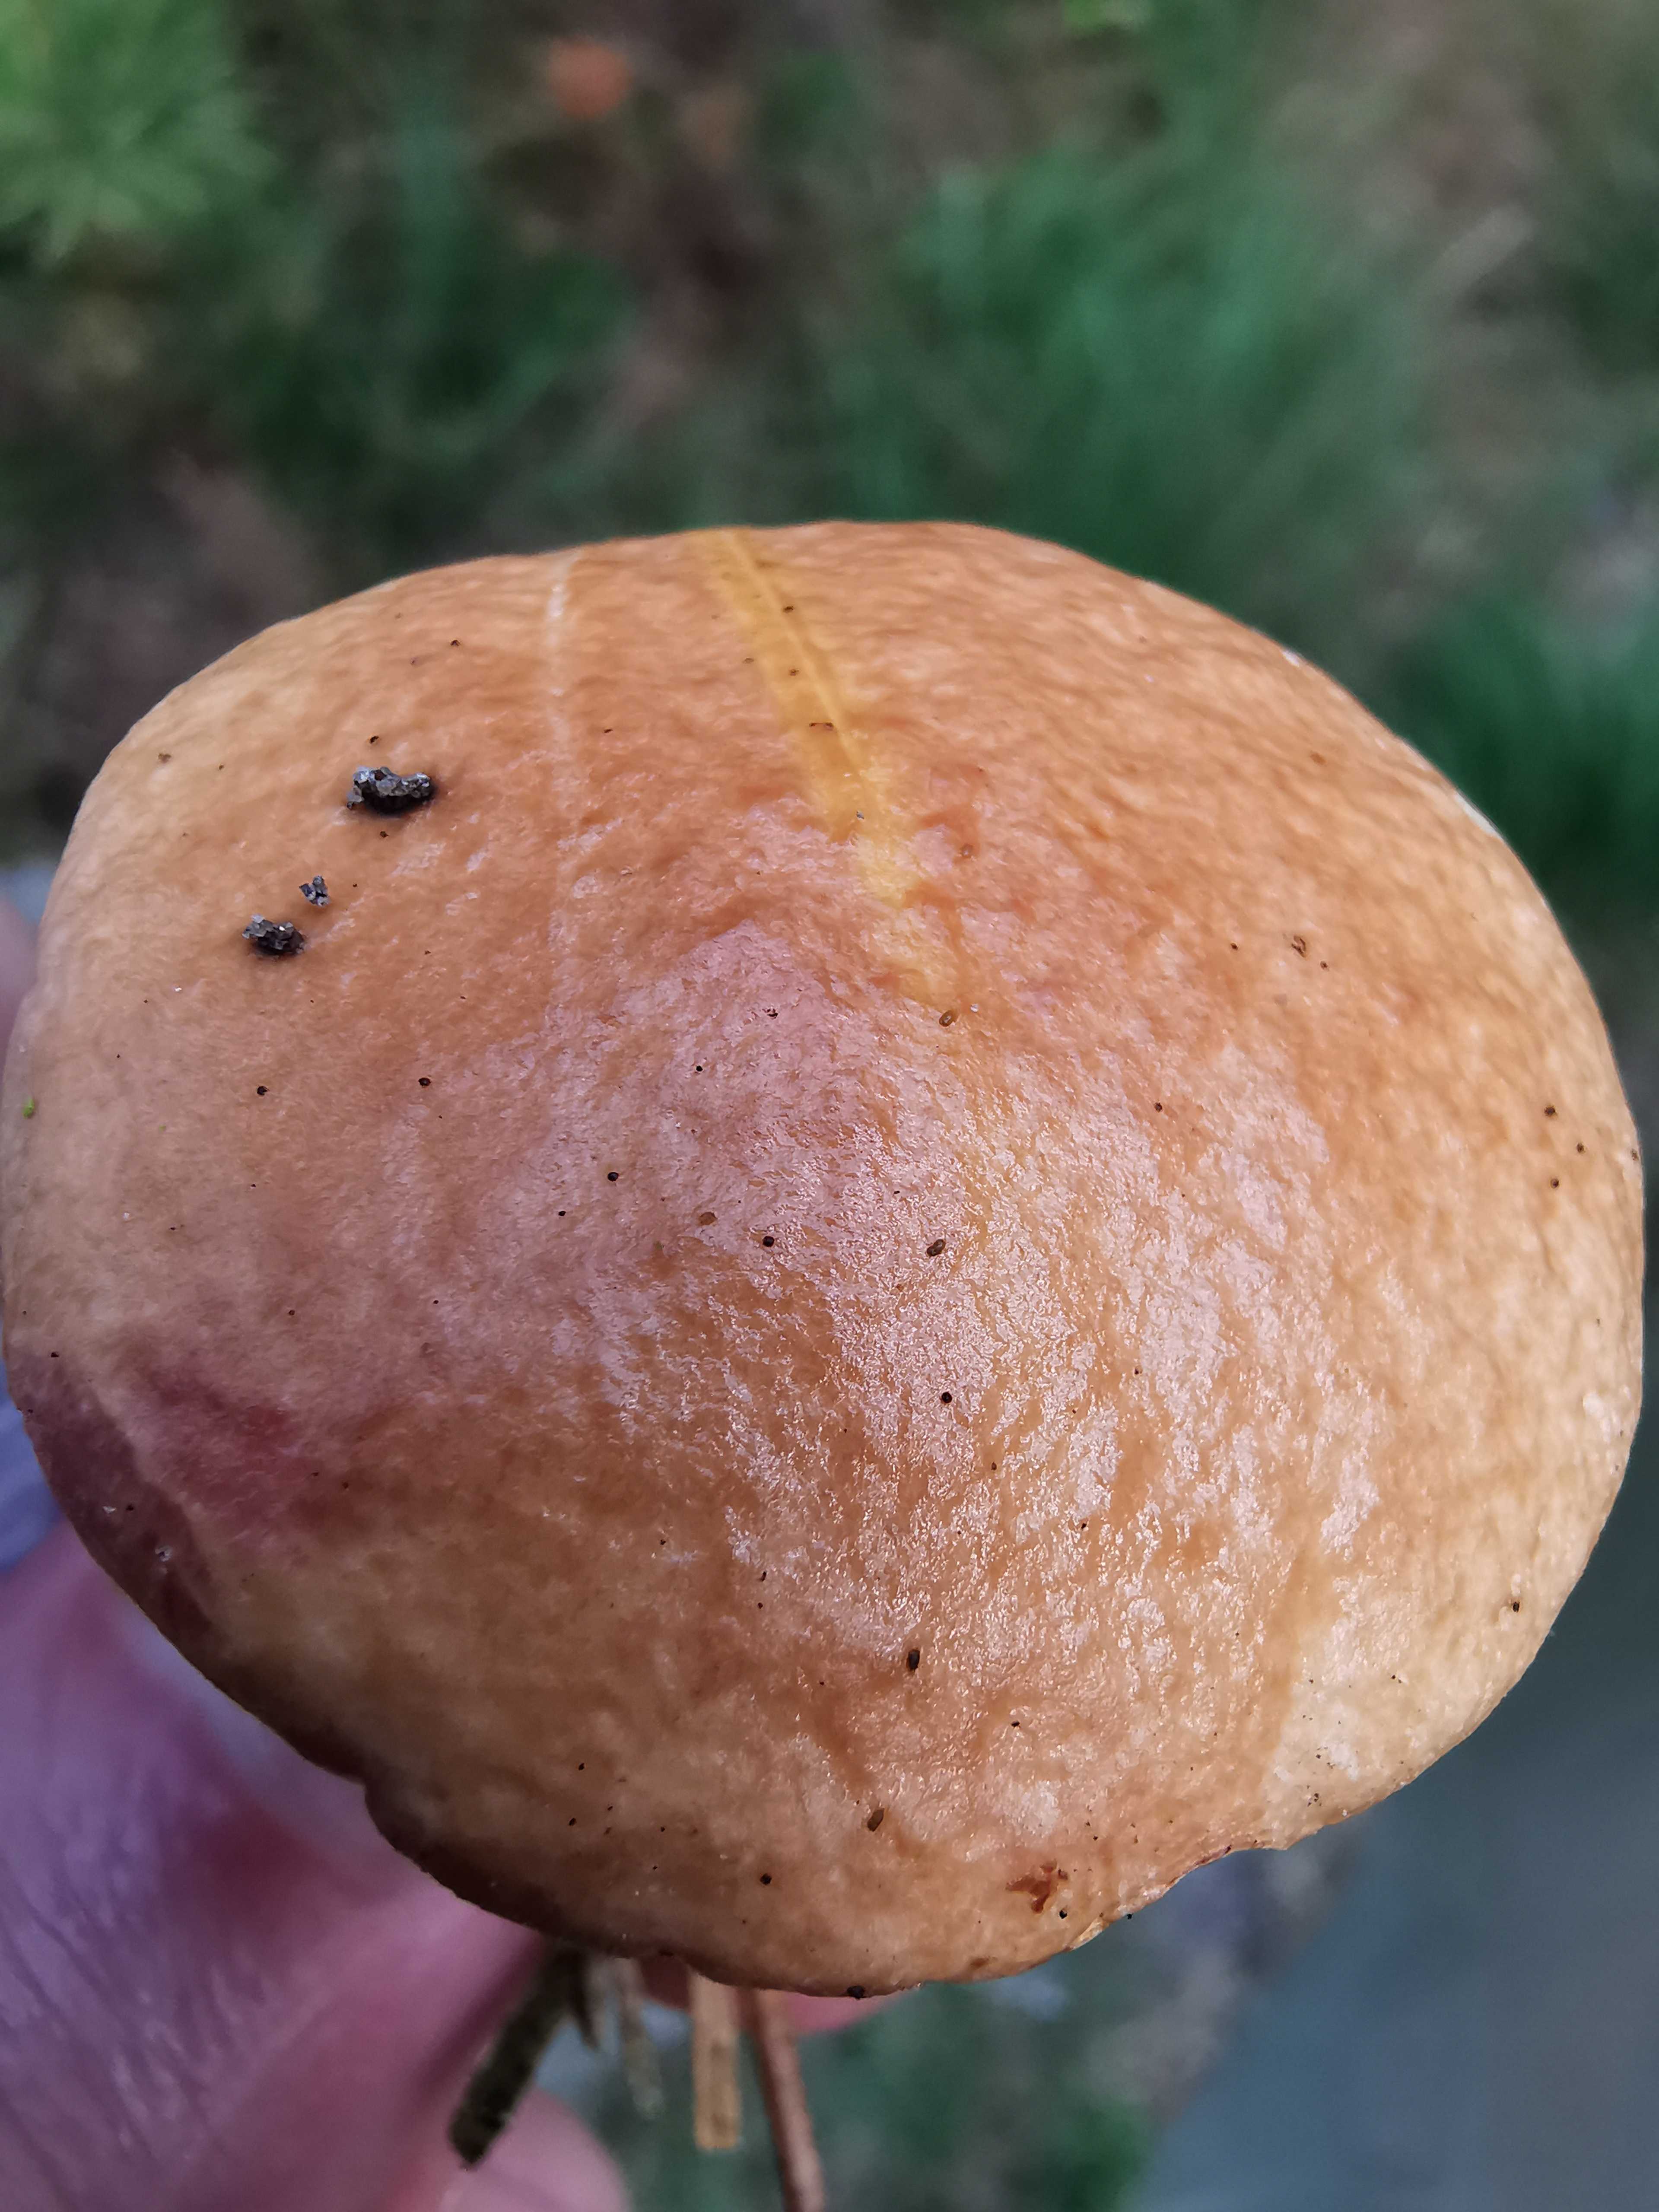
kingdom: Fungi
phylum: Basidiomycota
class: Agaricomycetes
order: Boletales
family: Suillaceae
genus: Suillus
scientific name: Suillus bovinus
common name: grovporet slimrørhat
